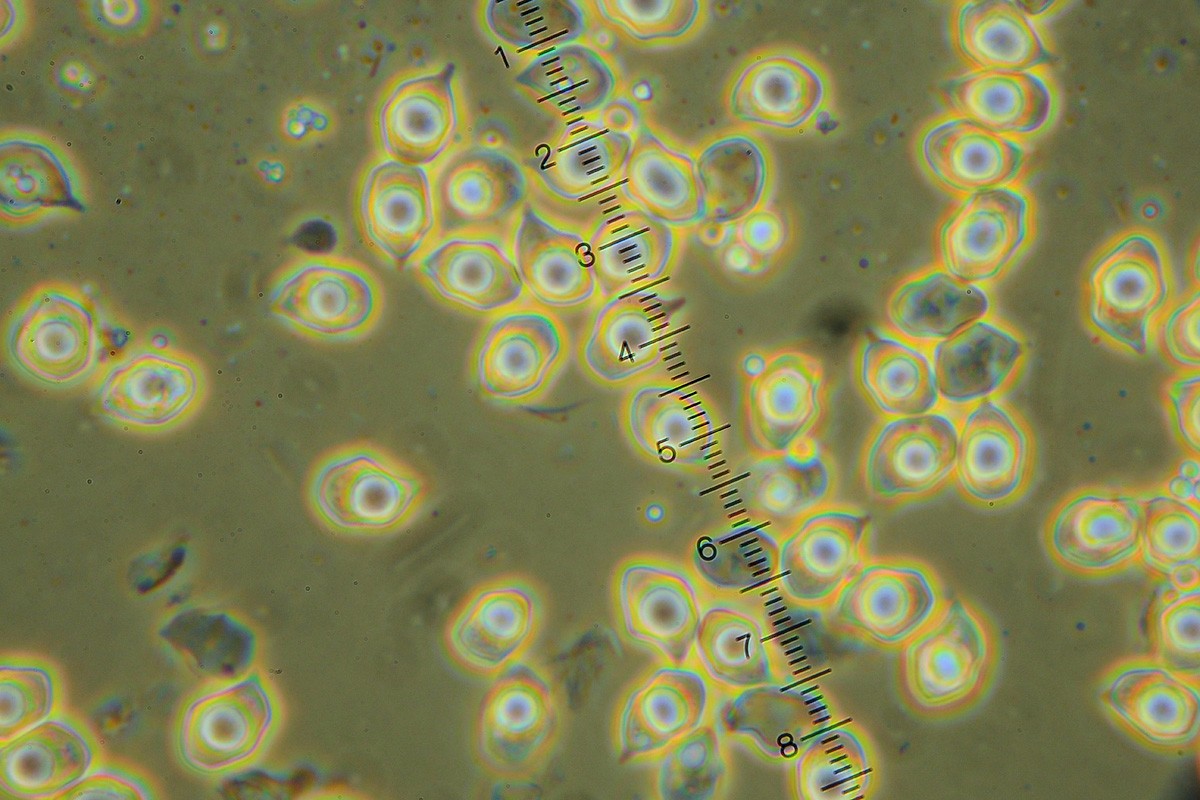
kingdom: Fungi
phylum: Basidiomycota
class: Agaricomycetes
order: Agaricales
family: Entolomataceae
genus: Entoloma
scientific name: Entoloma asprellum
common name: ru rødblad
